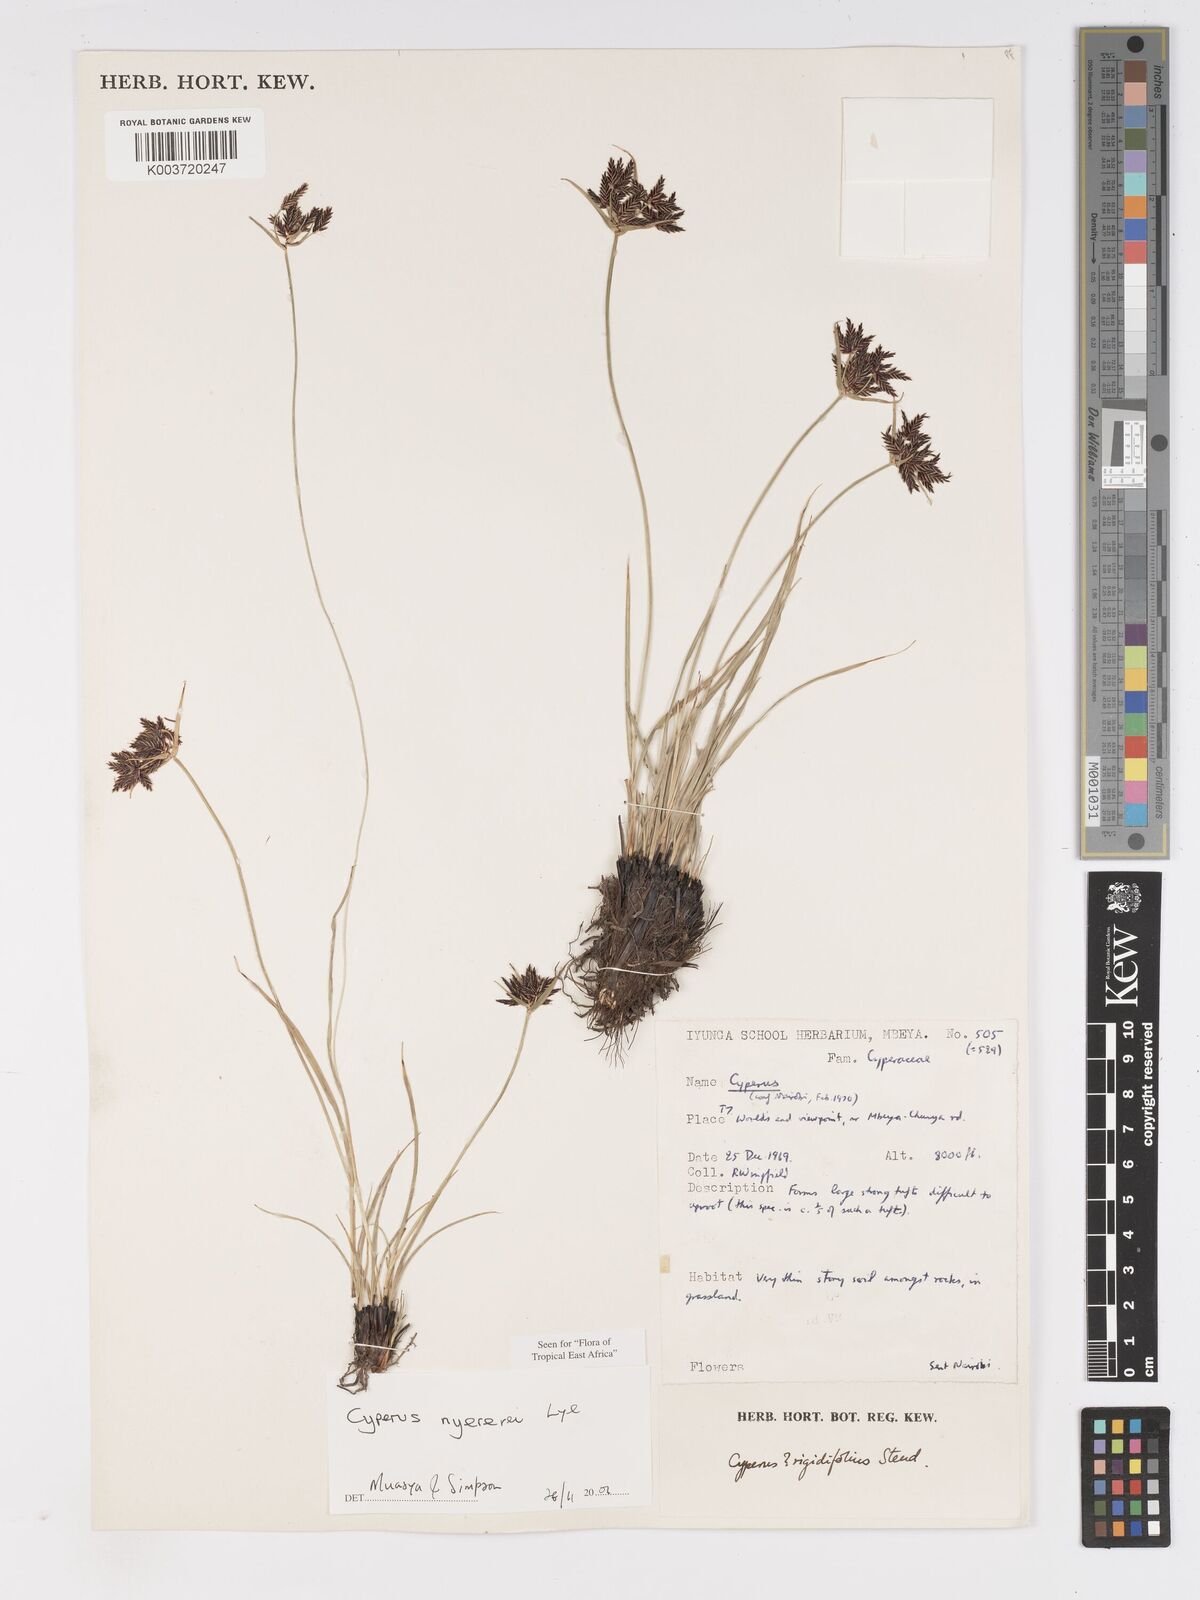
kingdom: Plantae
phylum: Tracheophyta
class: Liliopsida
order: Poales
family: Cyperaceae
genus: Cyperus
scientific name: Cyperus nyererei
